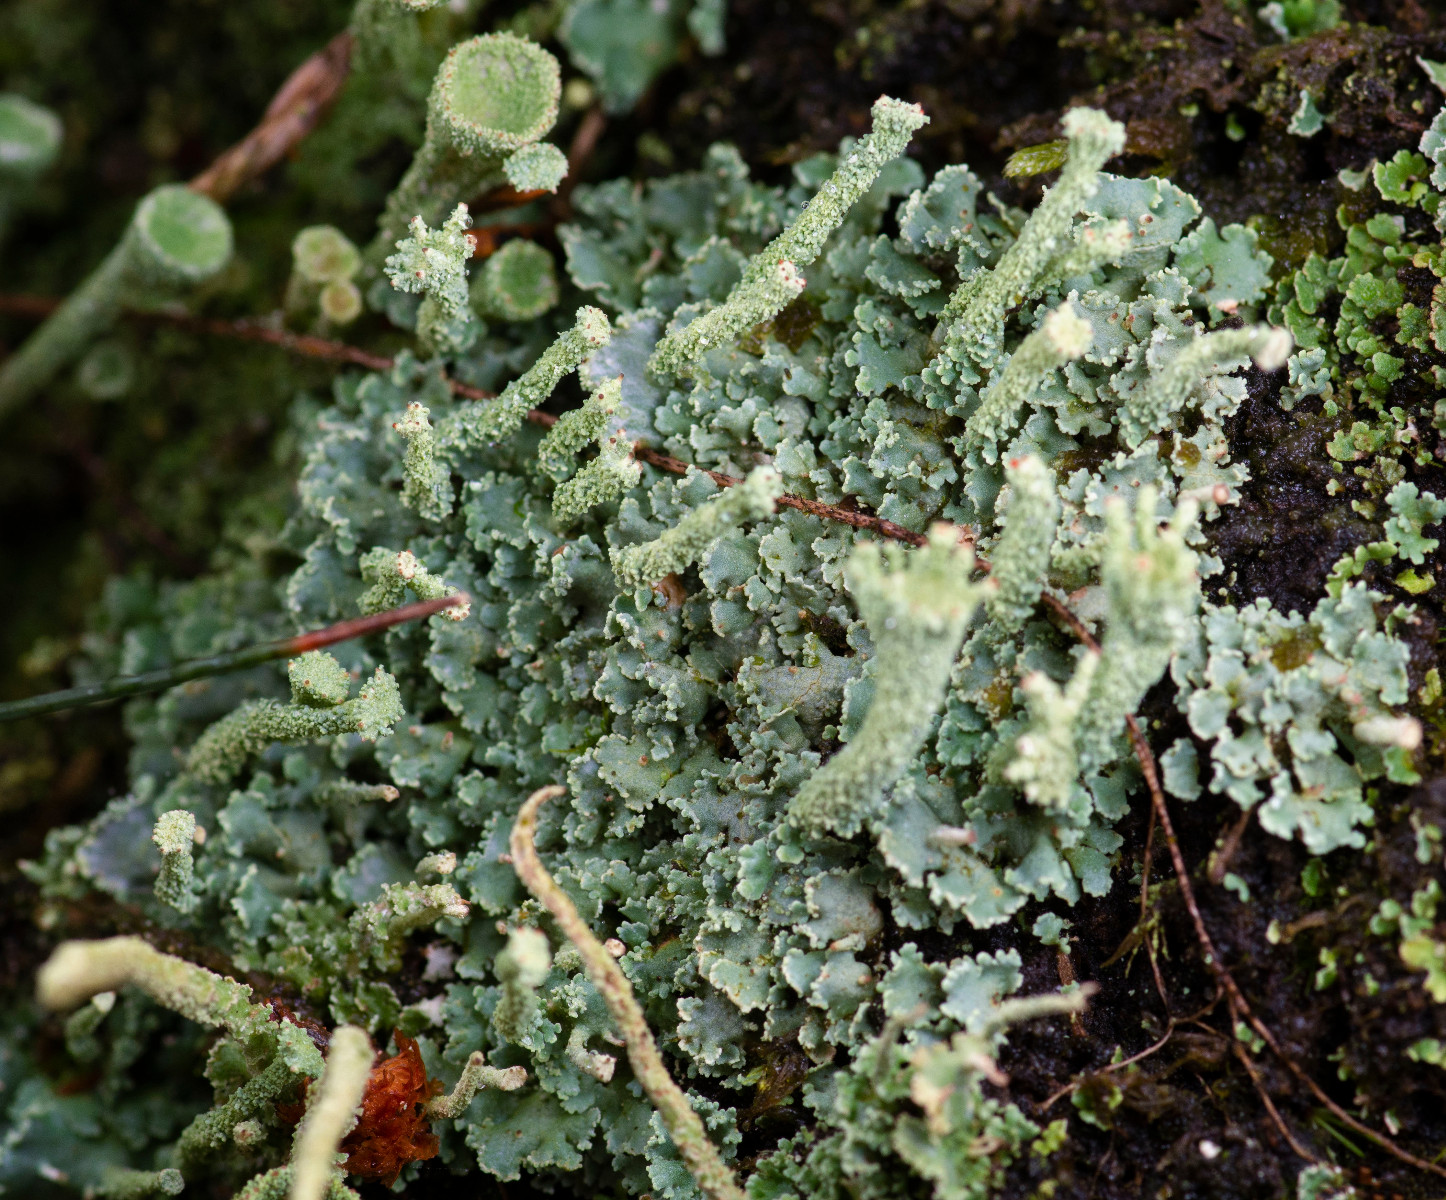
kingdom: Fungi
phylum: Ascomycota
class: Lecanoromycetes
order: Lecanorales
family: Cladoniaceae
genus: Cladonia
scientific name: Cladonia polydactyla
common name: vifte-bægerlav
